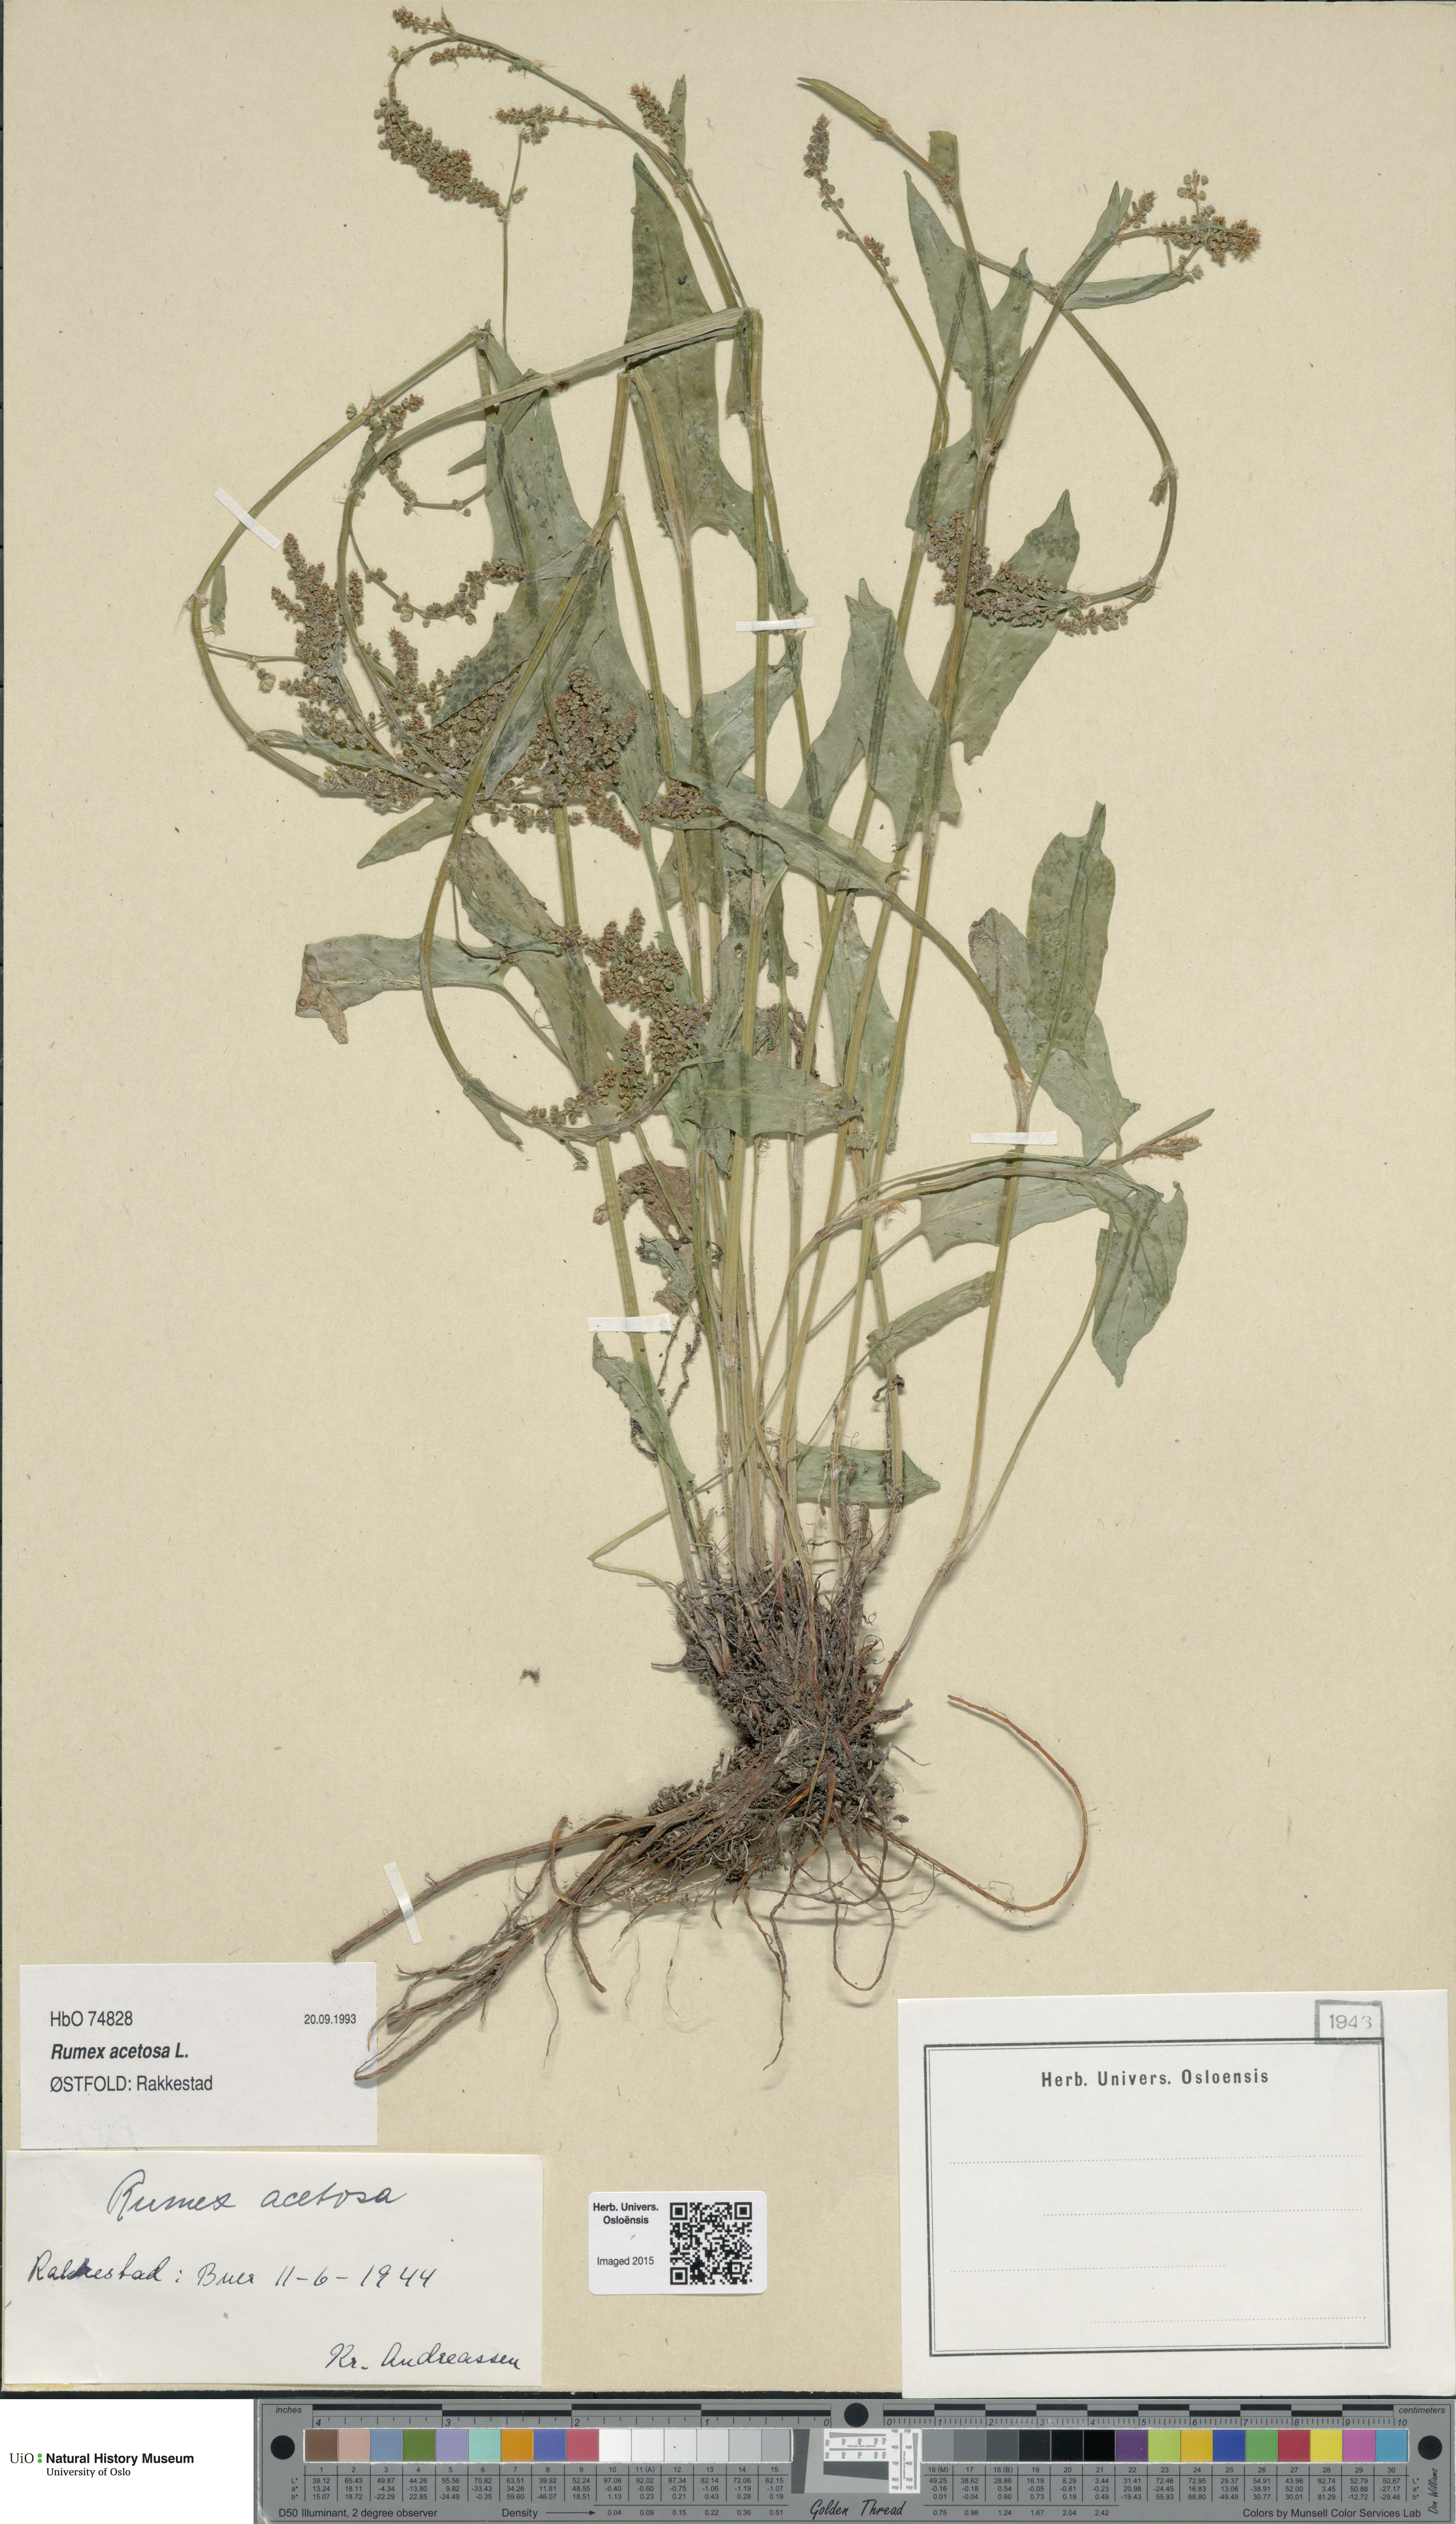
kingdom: Plantae
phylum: Tracheophyta
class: Magnoliopsida
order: Caryophyllales
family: Polygonaceae
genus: Rumex
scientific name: Rumex acetosa
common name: Garden sorrel
